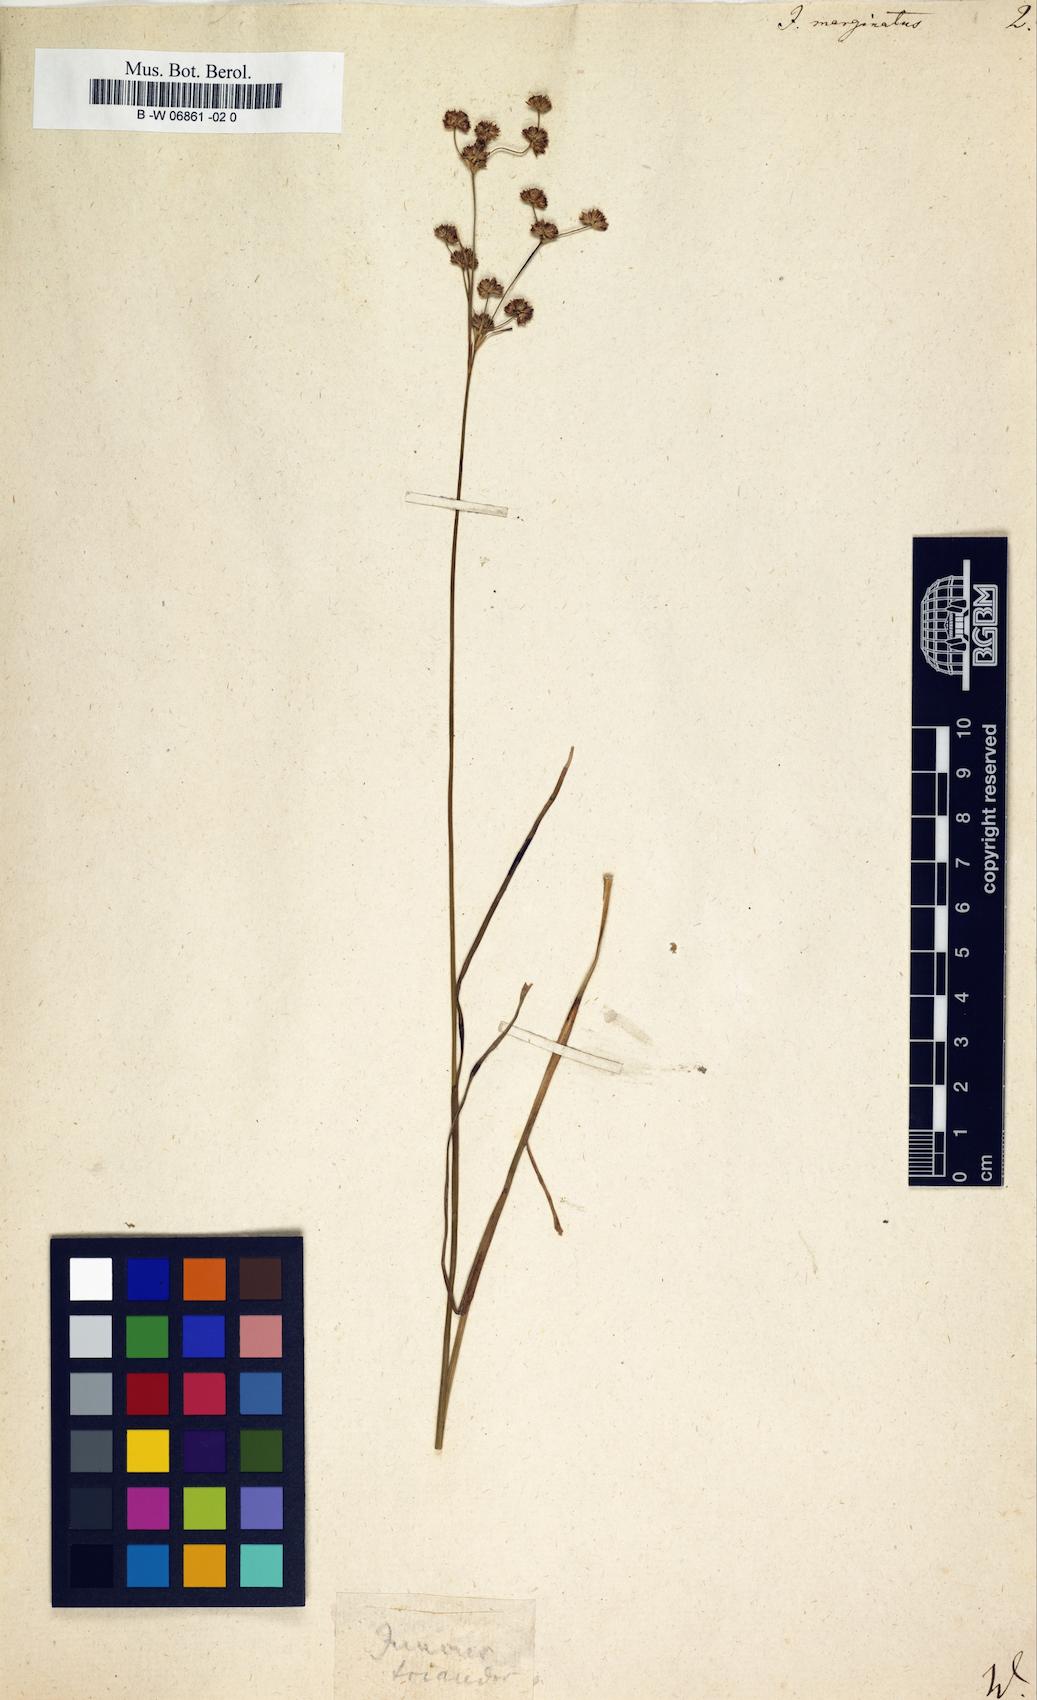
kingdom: Plantae
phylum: Tracheophyta
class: Liliopsida
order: Poales
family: Juncaceae
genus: Juncus
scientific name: Juncus marginatus
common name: Grass-leaf rush
